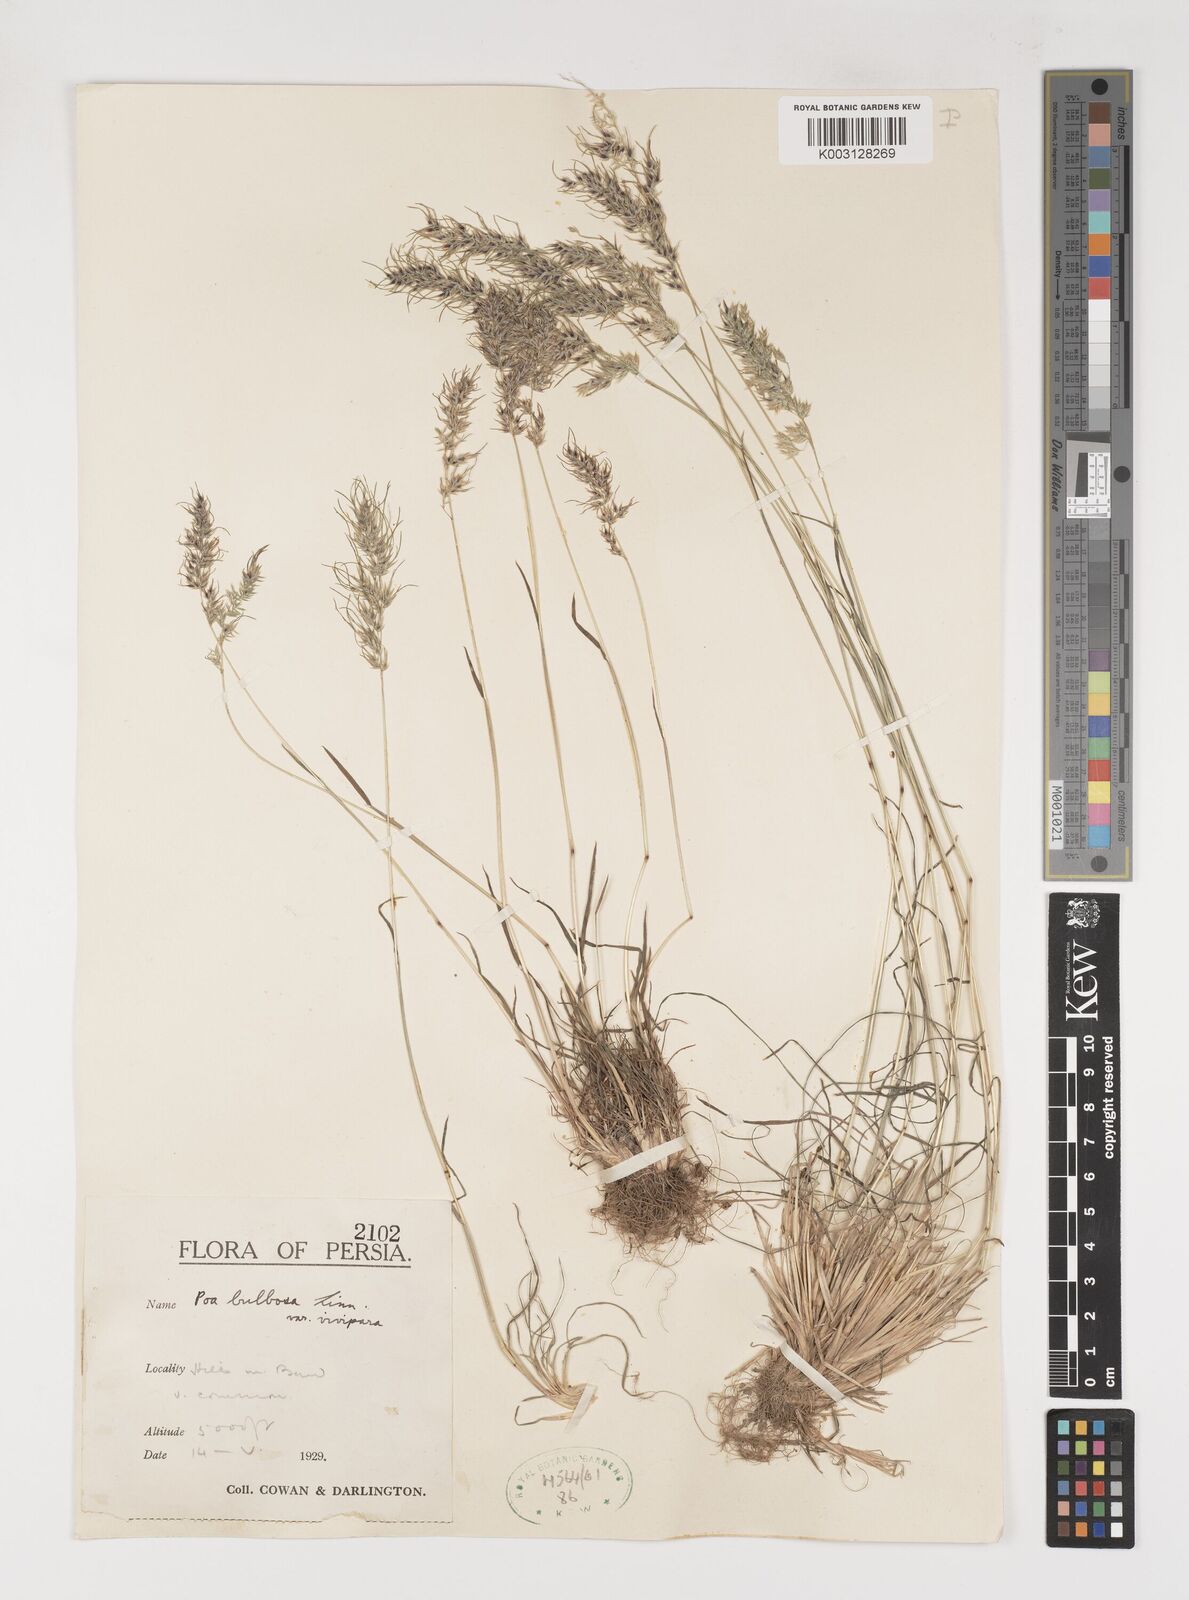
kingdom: Plantae
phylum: Tracheophyta
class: Liliopsida
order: Poales
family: Poaceae
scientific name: Poaceae
